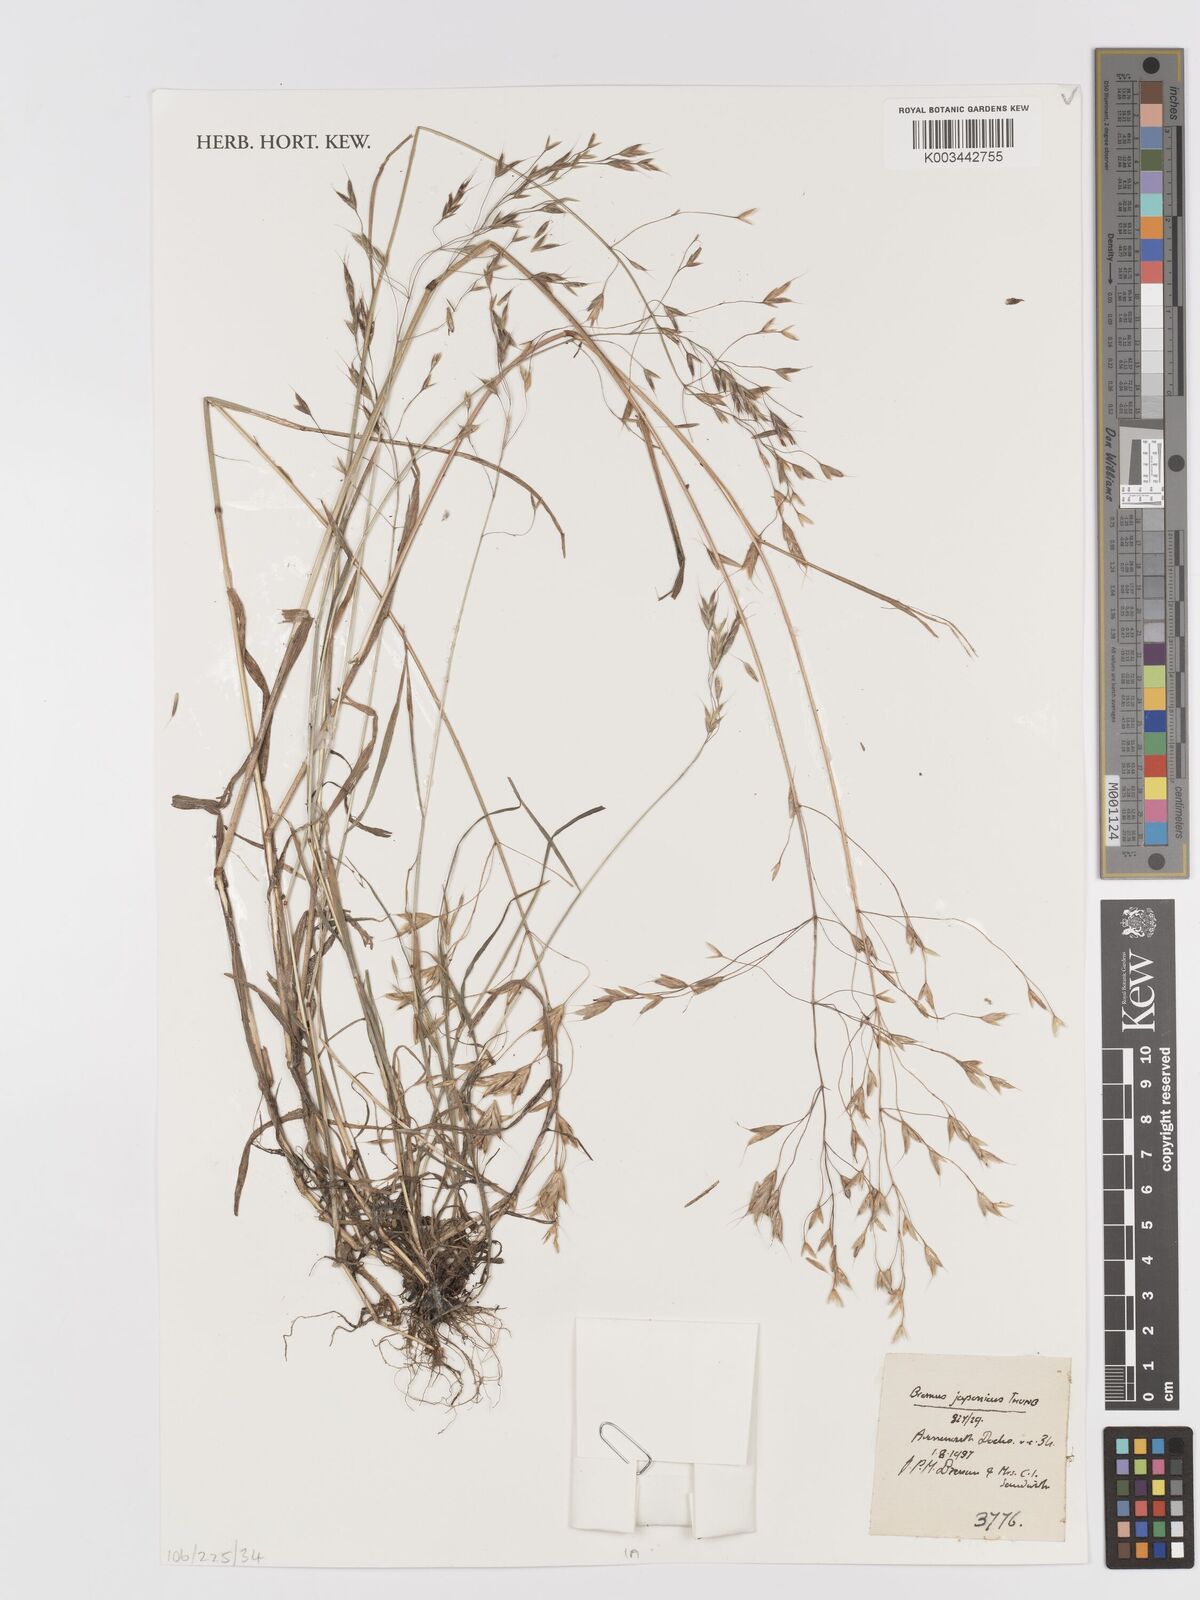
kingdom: Plantae
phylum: Tracheophyta
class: Liliopsida
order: Poales
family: Poaceae
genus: Bromus
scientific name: Bromus japonicus
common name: Japanese brome
